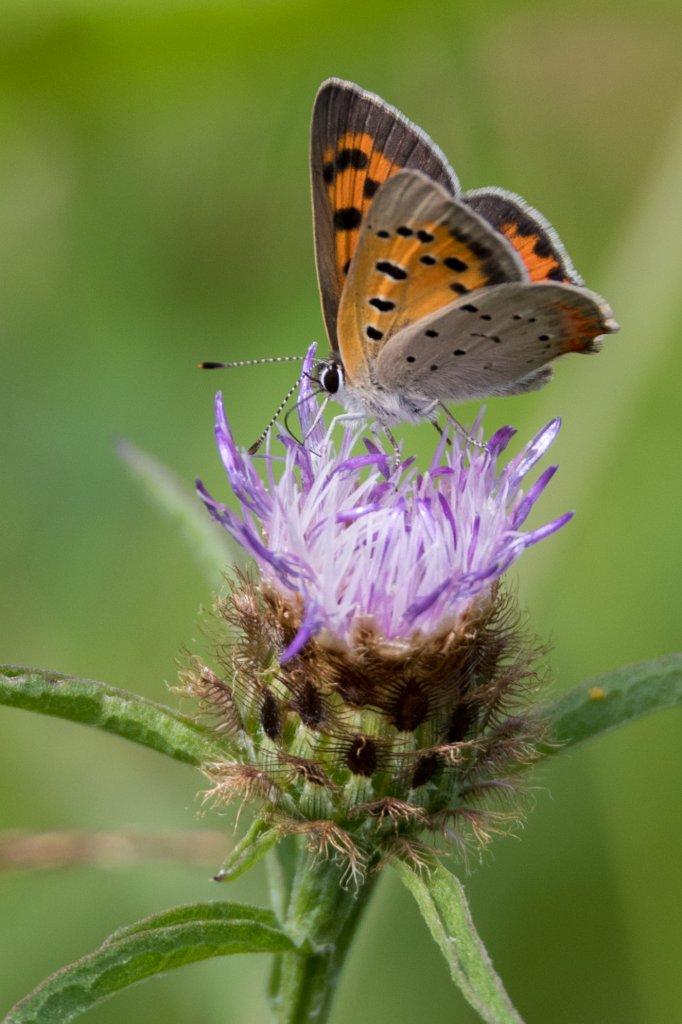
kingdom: Animalia
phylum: Arthropoda
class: Insecta
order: Lepidoptera
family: Lycaenidae
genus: Lycaena
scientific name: Lycaena phlaeas
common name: American Copper
